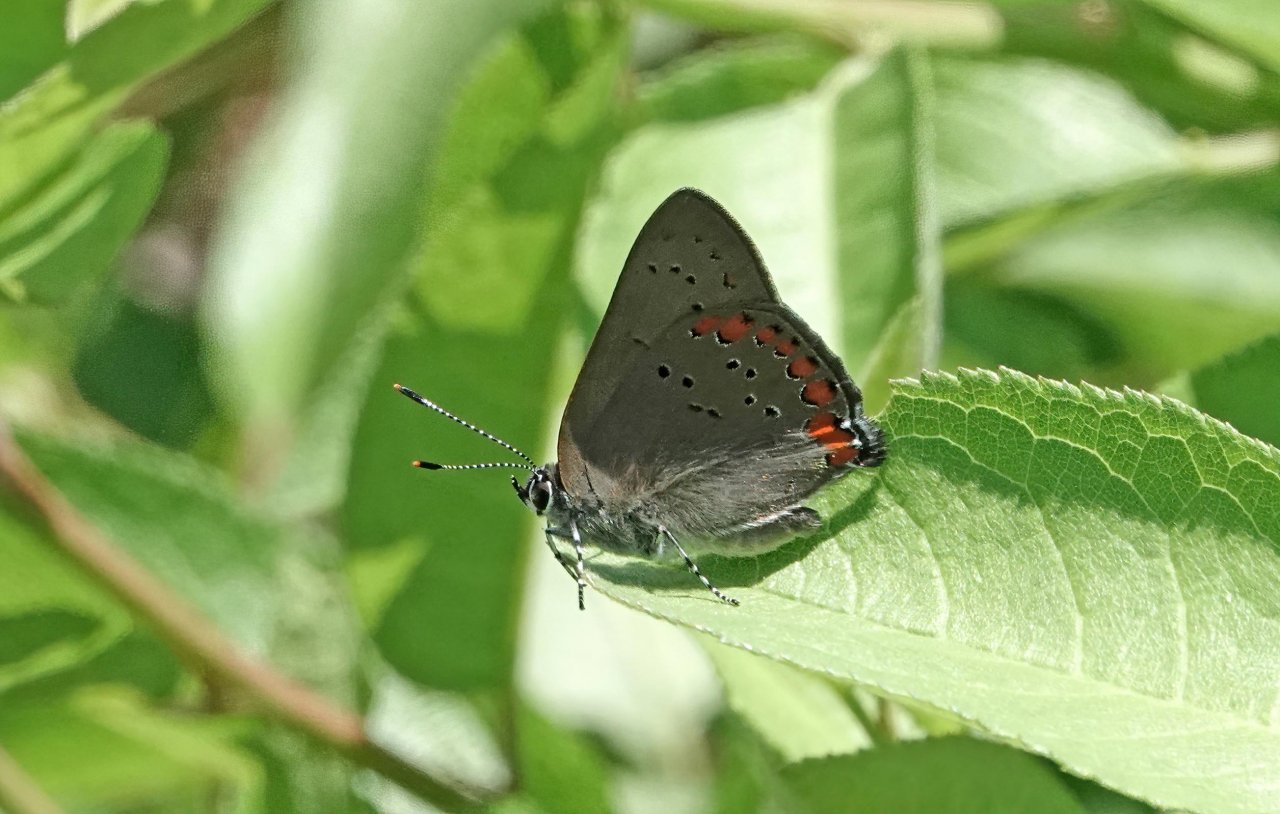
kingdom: Animalia
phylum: Arthropoda
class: Insecta
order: Lepidoptera
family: Lycaenidae
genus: Harkenclenus
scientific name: Harkenclenus titus
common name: Coral Hairstreak
